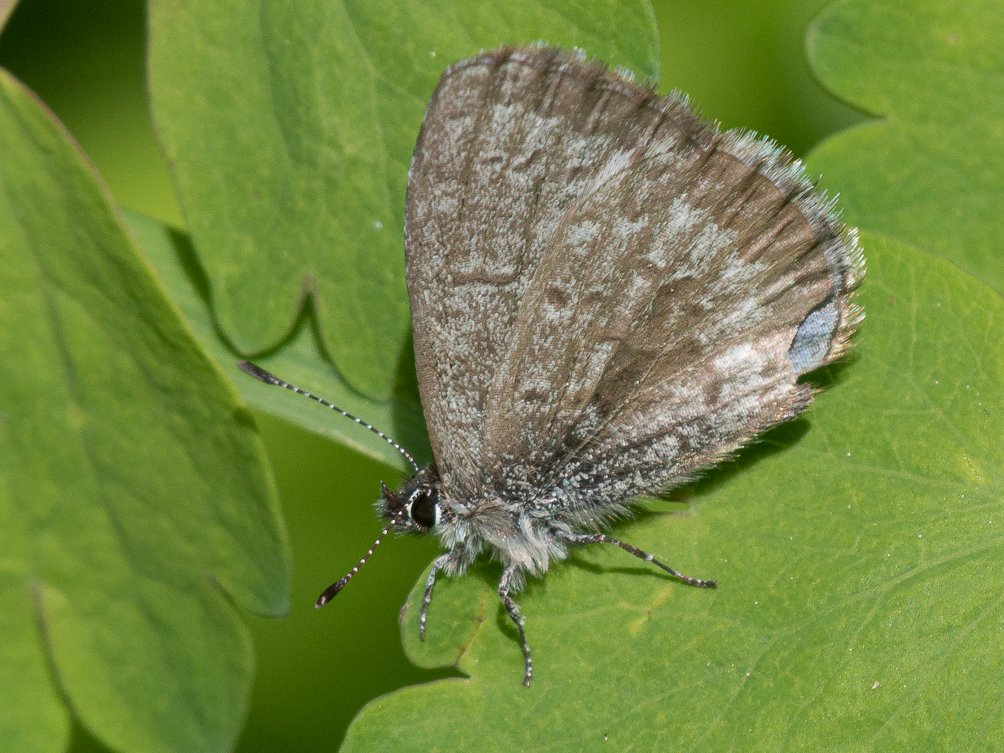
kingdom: Animalia
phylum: Arthropoda
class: Insecta
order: Lepidoptera
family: Lycaenidae
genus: Celastrina
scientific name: Celastrina lucia
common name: Northern Spring Azure
